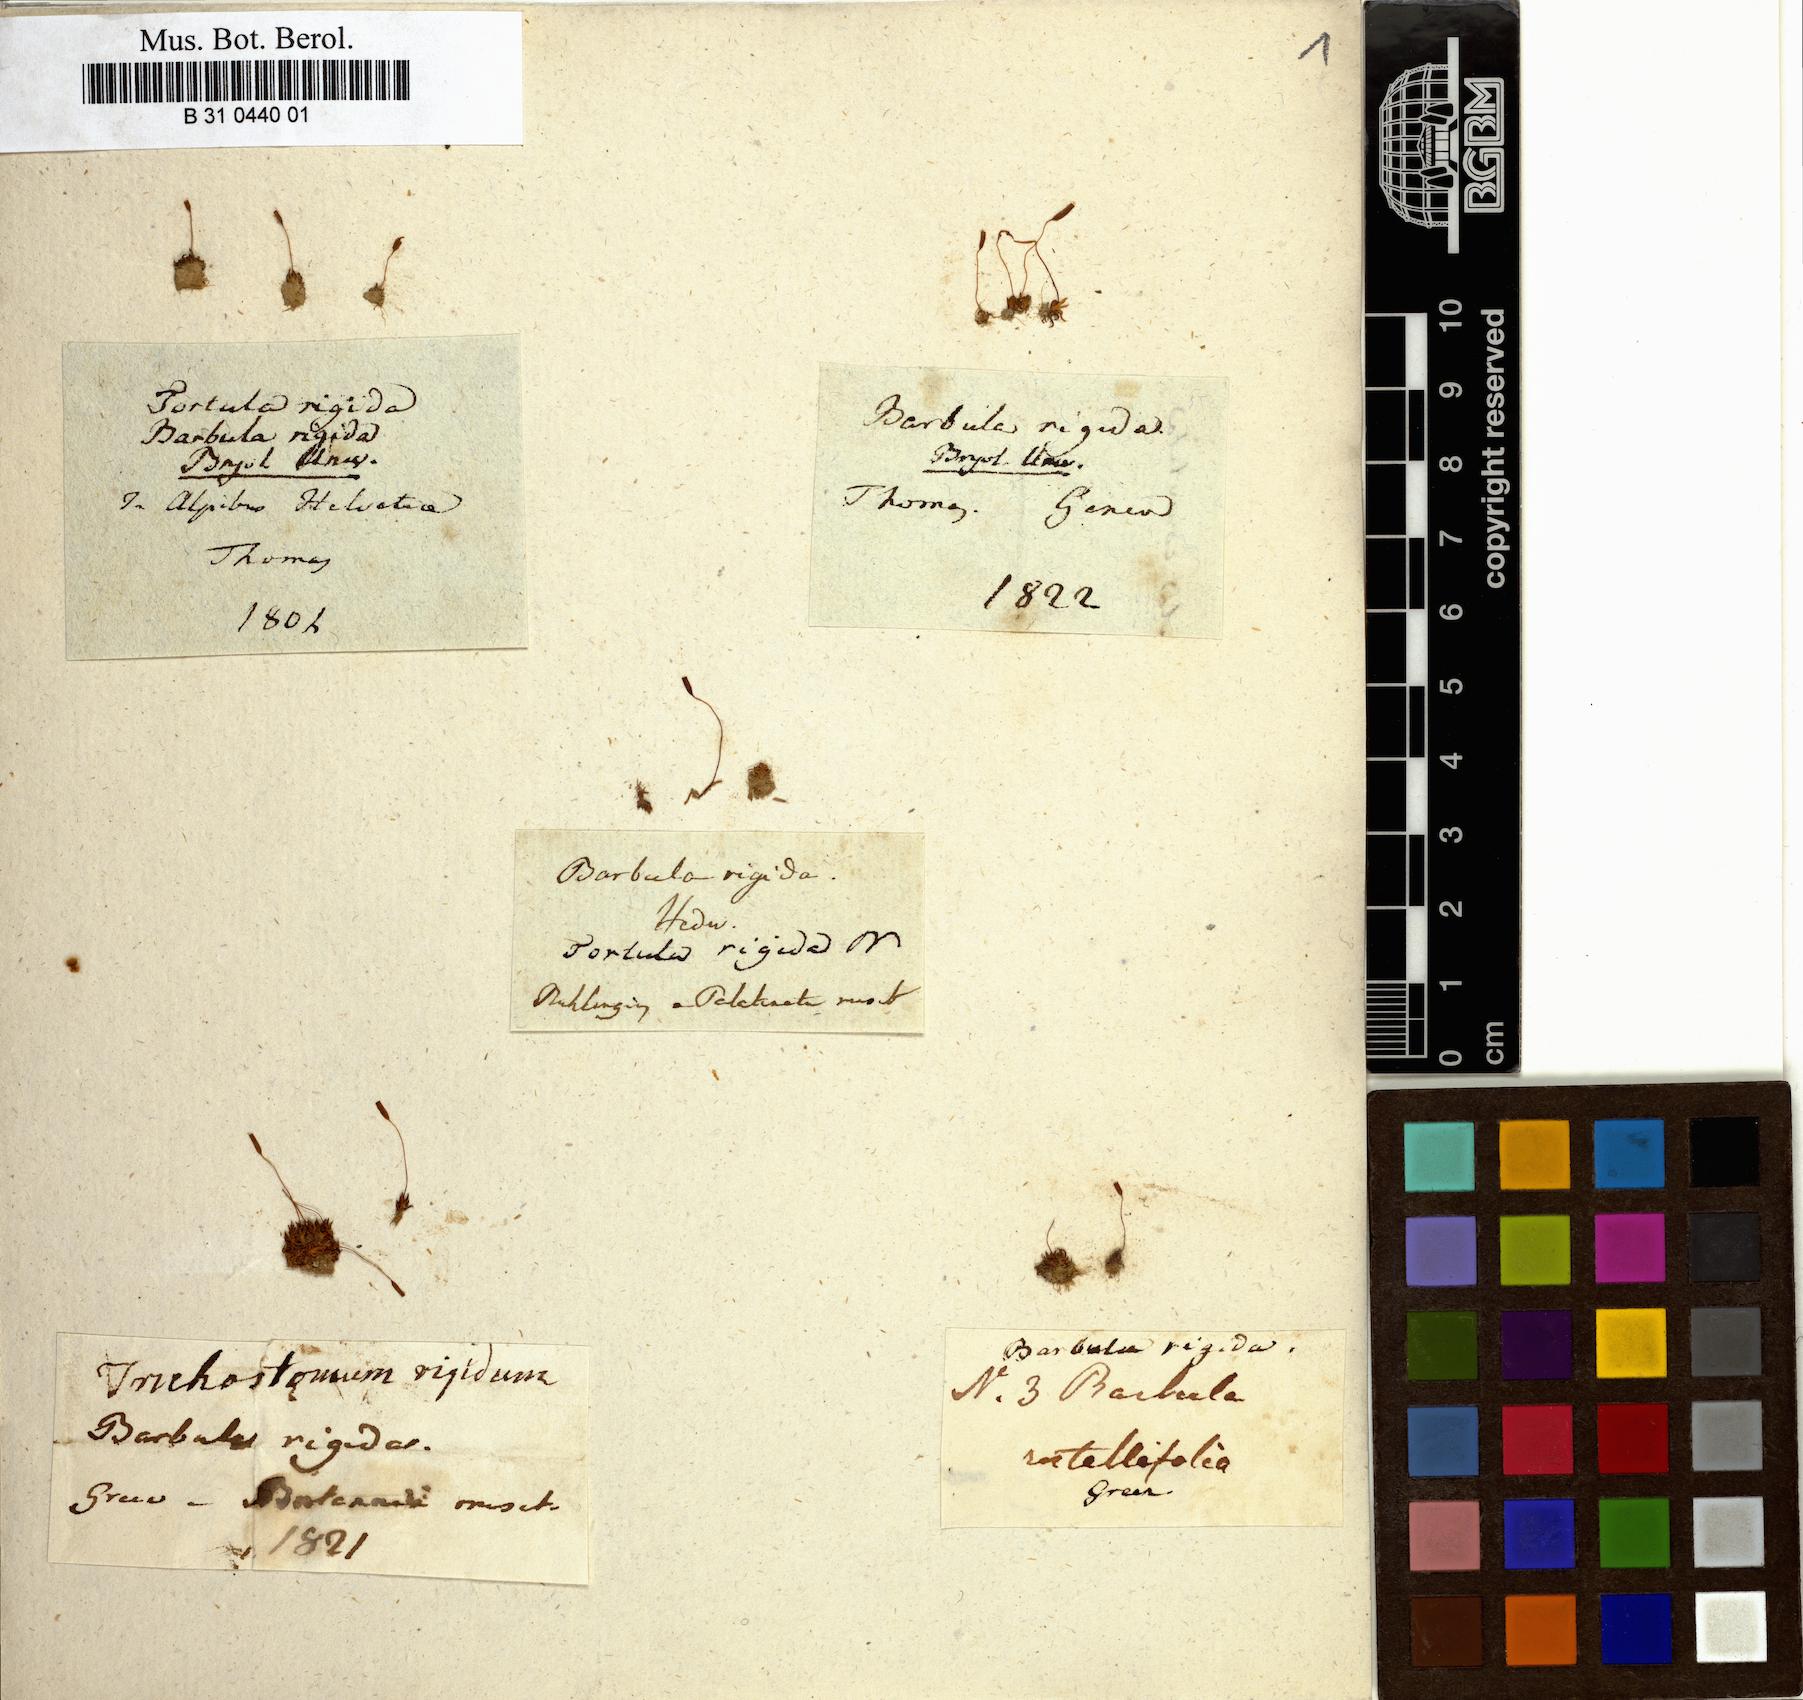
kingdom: Plantae
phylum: Bryophyta
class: Bryopsida
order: Pottiales
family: Pottiaceae
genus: Aloina
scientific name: Aloina rigida
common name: Rigid screw moss
